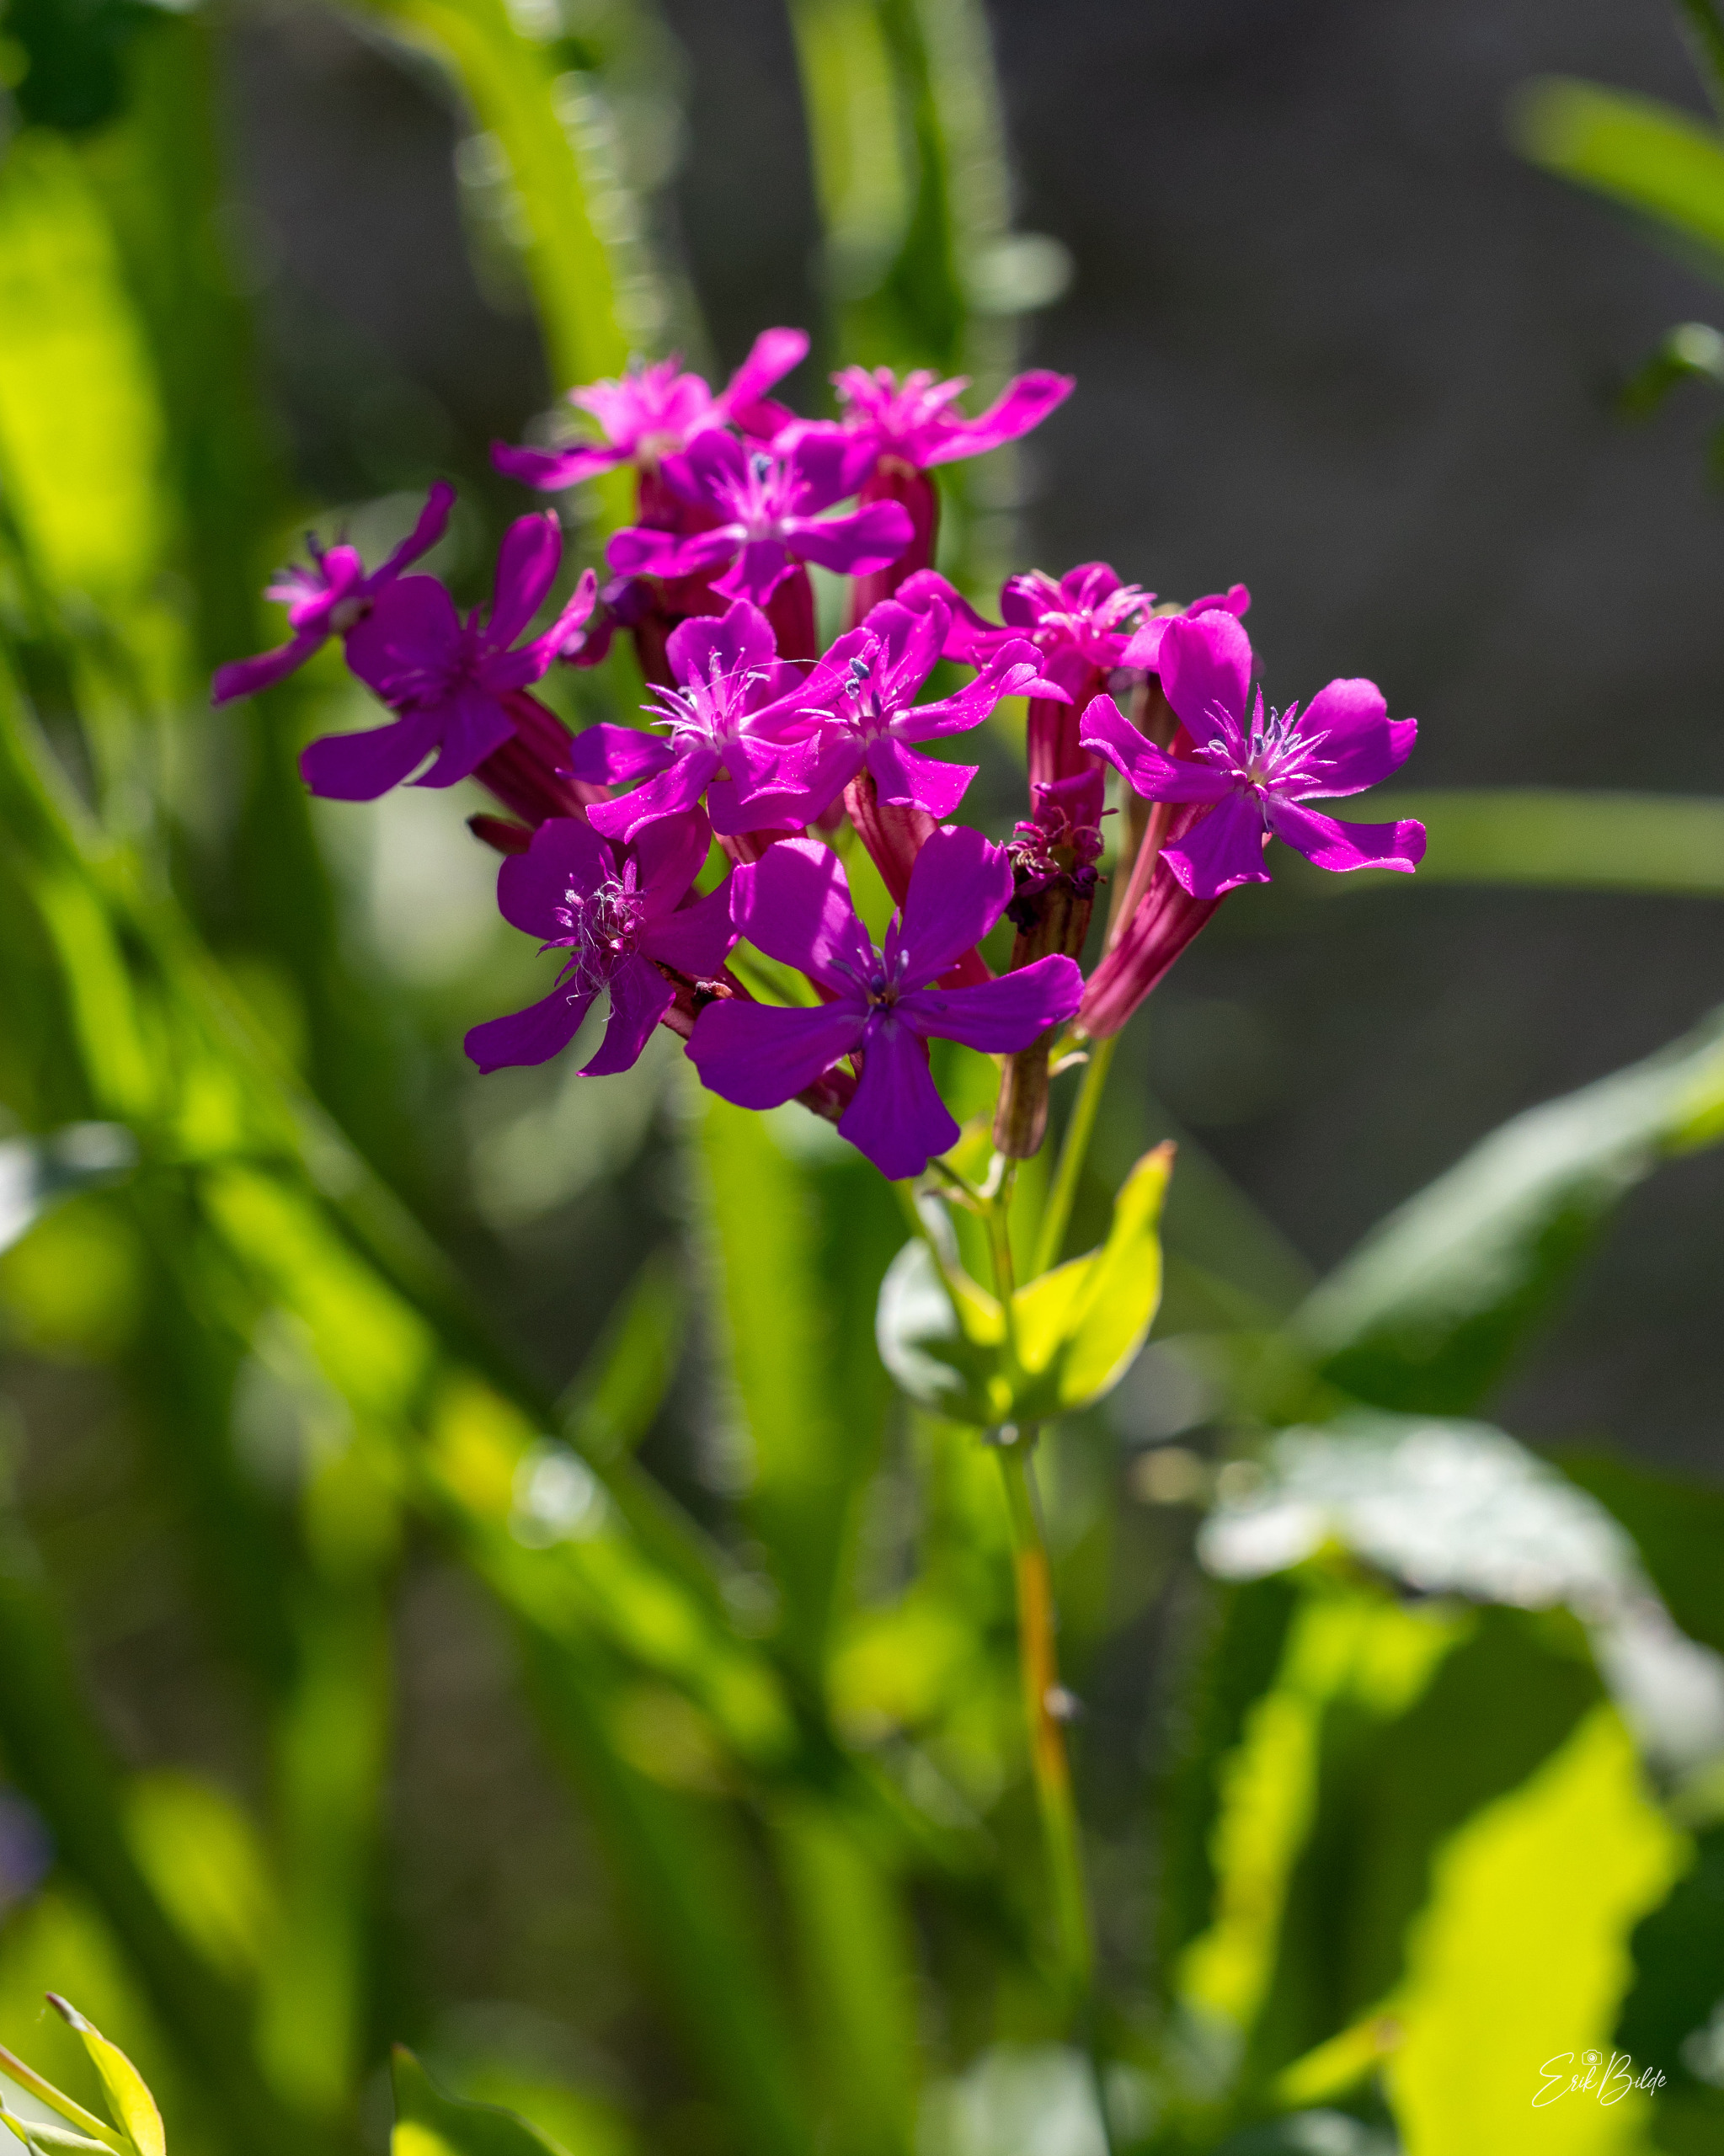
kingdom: Plantae
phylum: Tracheophyta
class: Magnoliopsida
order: Caryophyllales
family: Caryophyllaceae
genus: Atocion
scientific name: Atocion armeria
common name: Knippe-limurt
